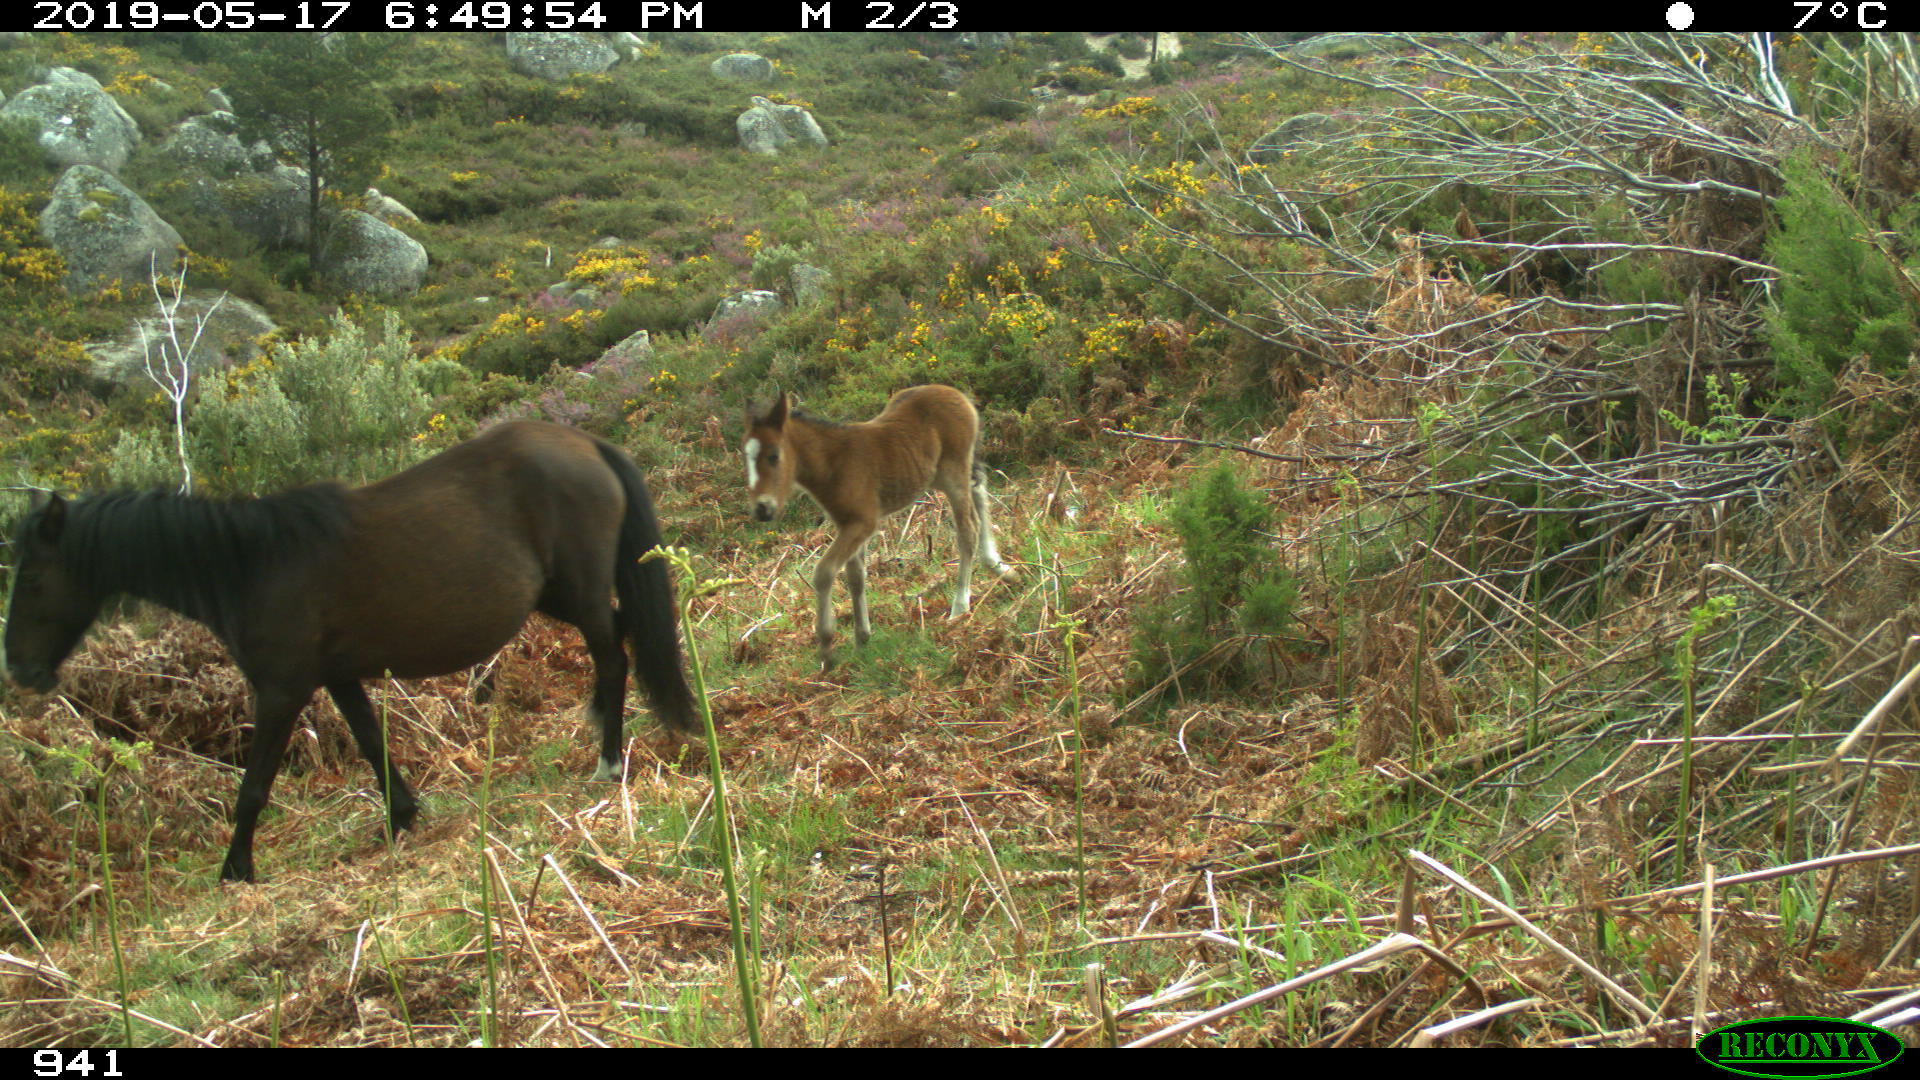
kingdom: Animalia
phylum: Chordata
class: Mammalia
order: Perissodactyla
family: Equidae
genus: Equus
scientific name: Equus caballus
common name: Horse
